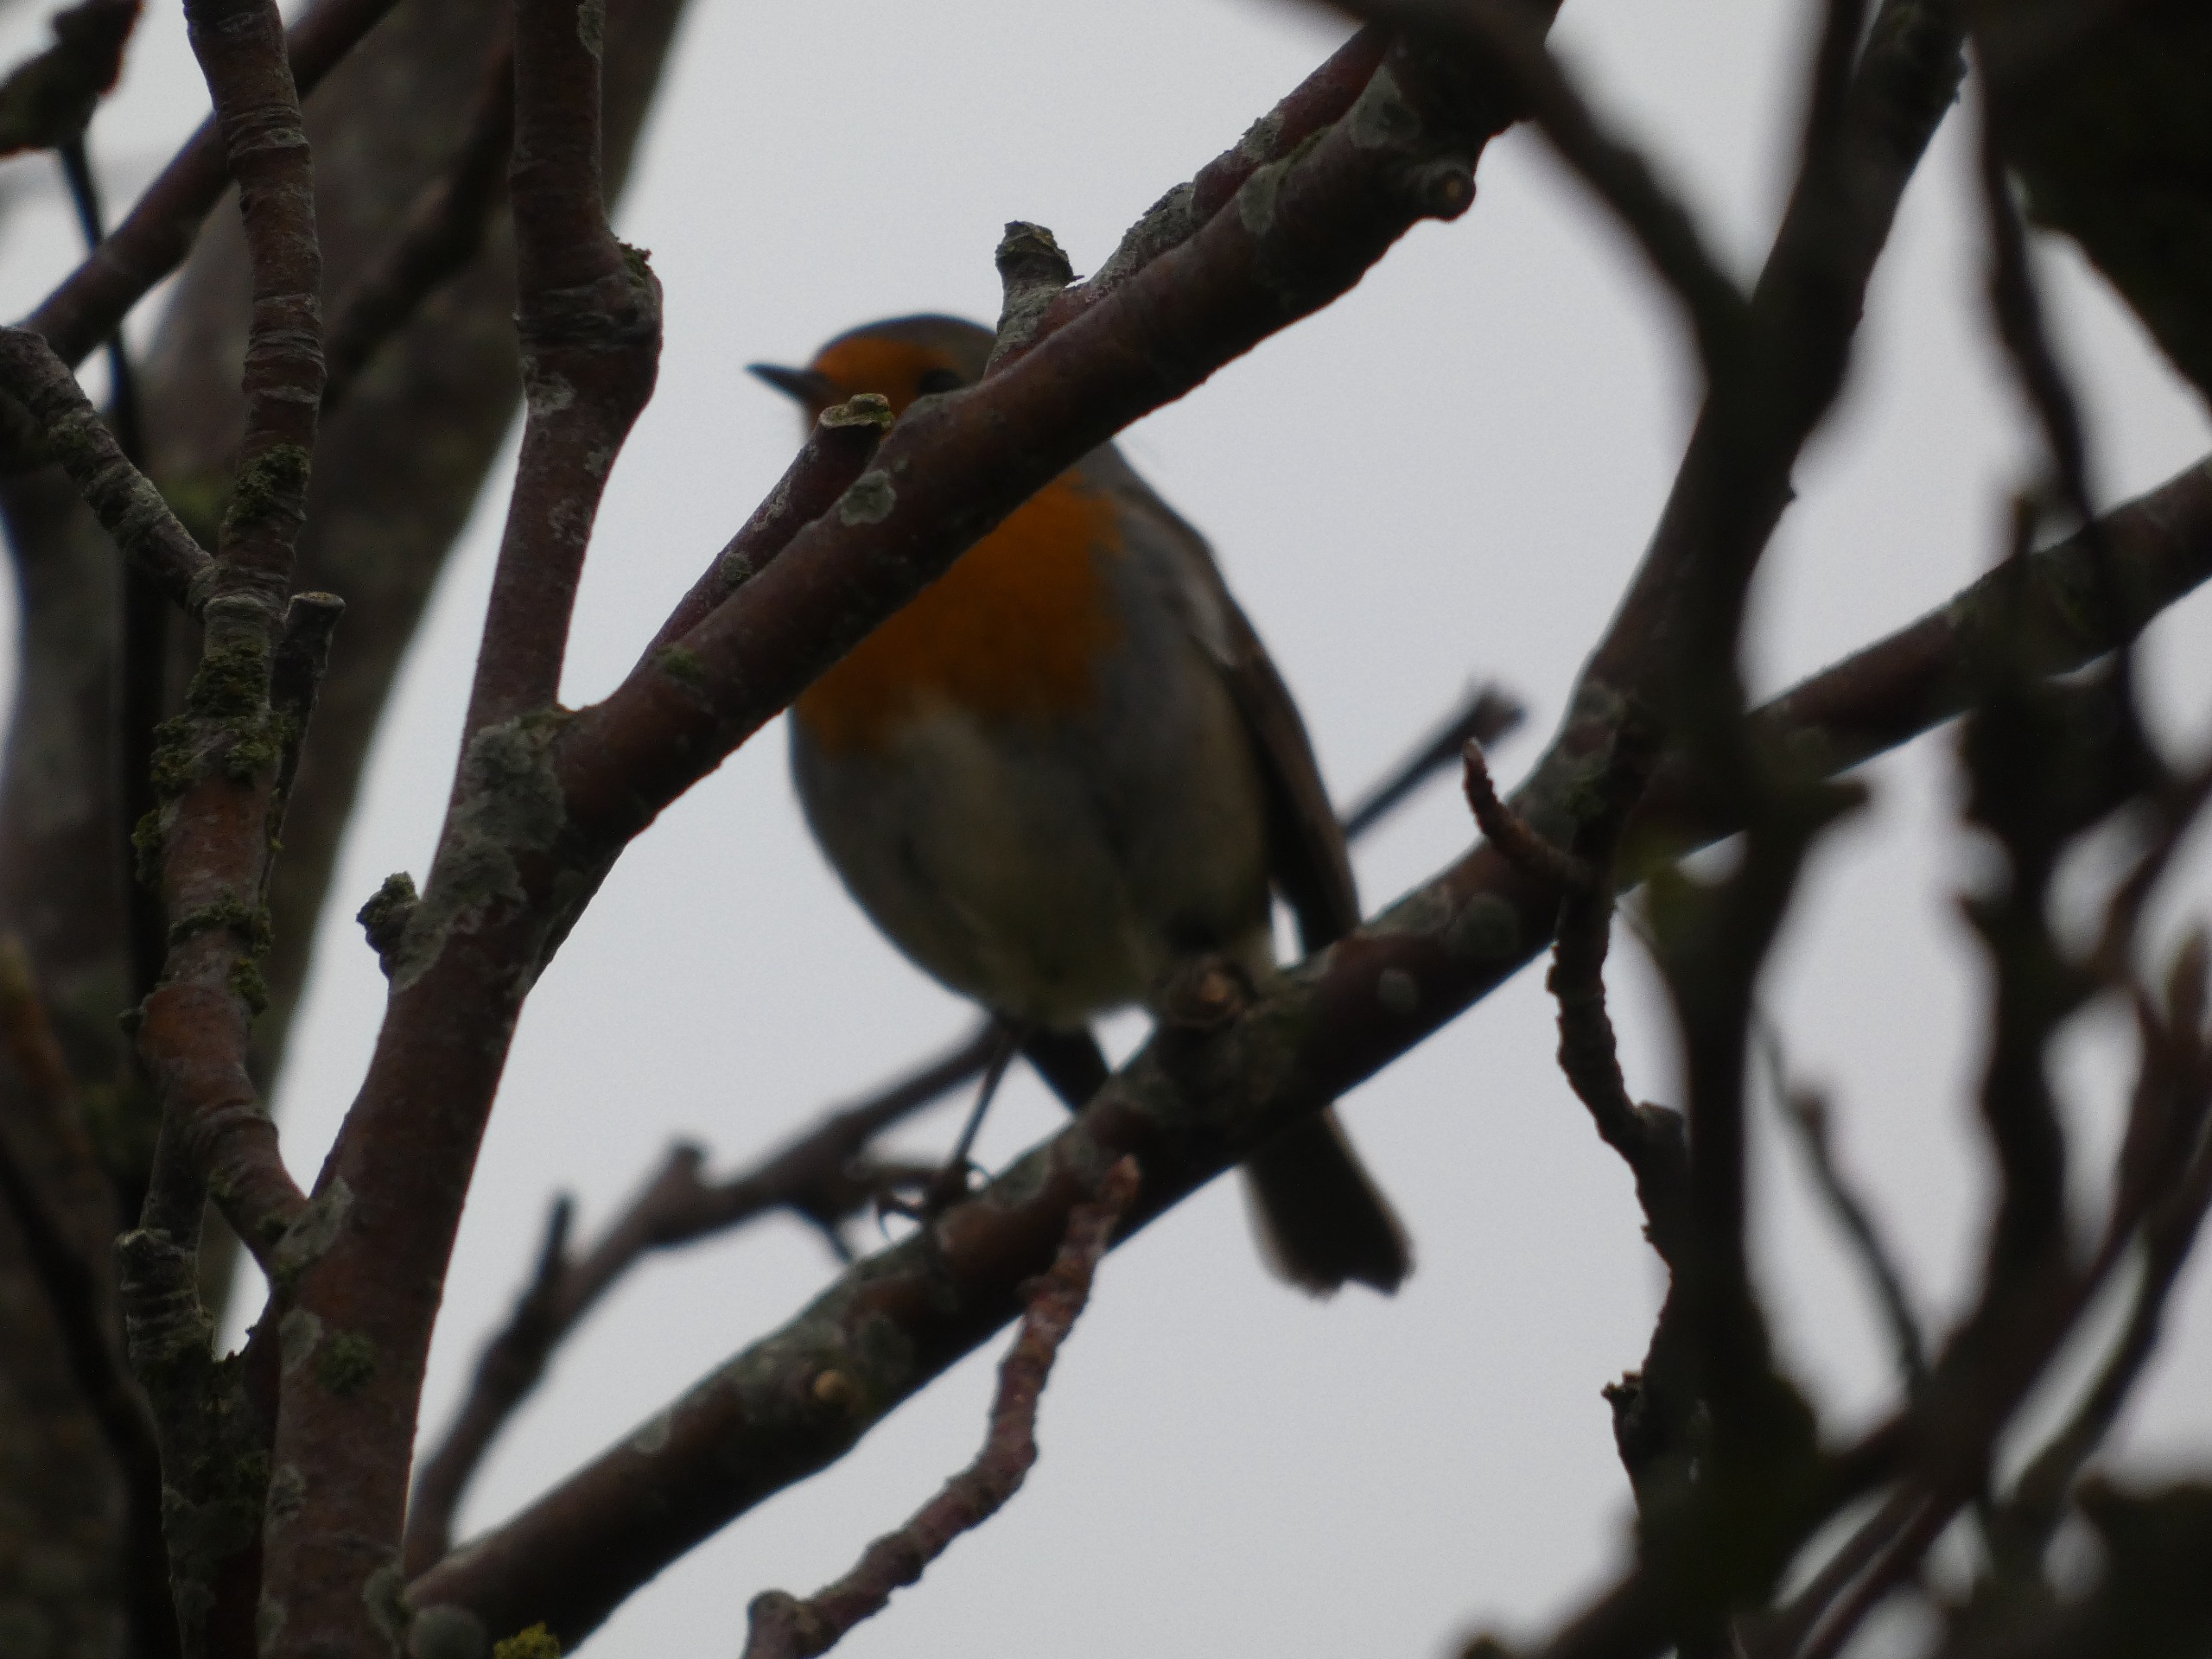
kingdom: Animalia
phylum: Chordata
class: Aves
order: Passeriformes
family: Muscicapidae
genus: Erithacus
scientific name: Erithacus rubecula
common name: Rødhals/rødkælk
